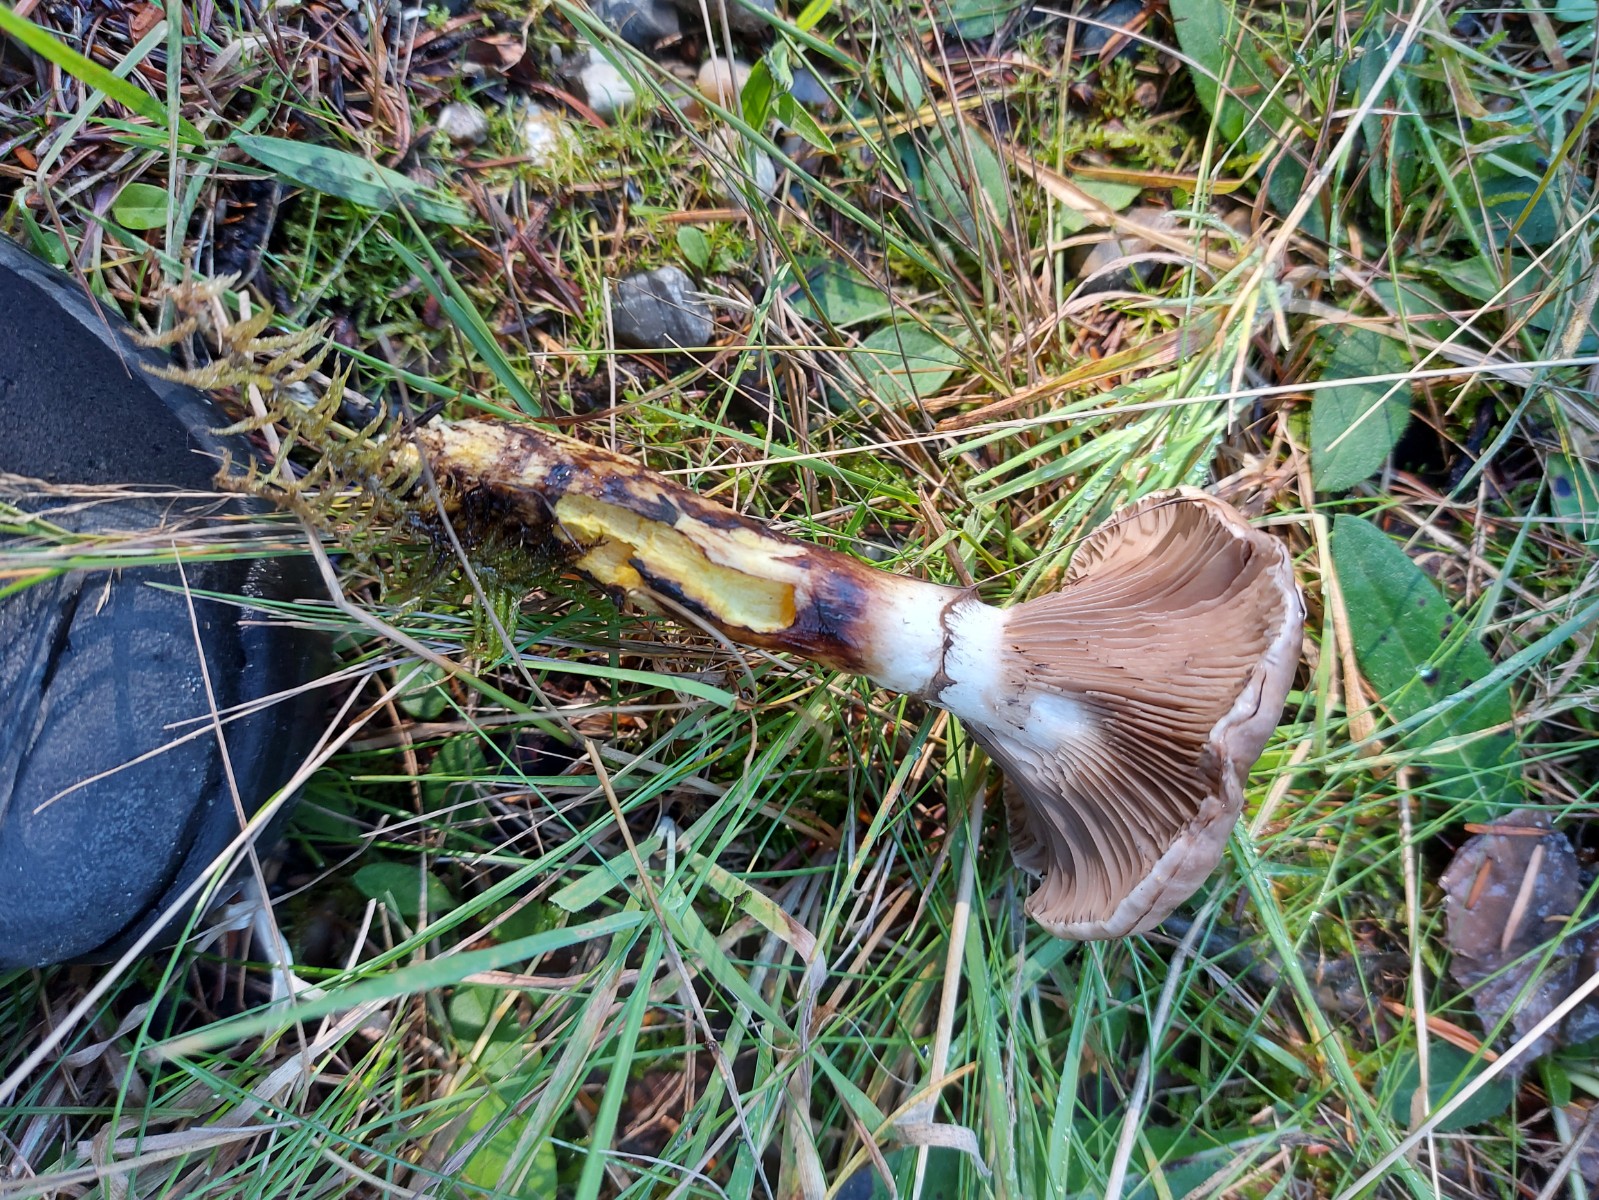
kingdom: Fungi
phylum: Basidiomycota
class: Agaricomycetes
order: Boletales
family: Gomphidiaceae
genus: Gomphidius
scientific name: Gomphidius glutinosus
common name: grå slimslør
